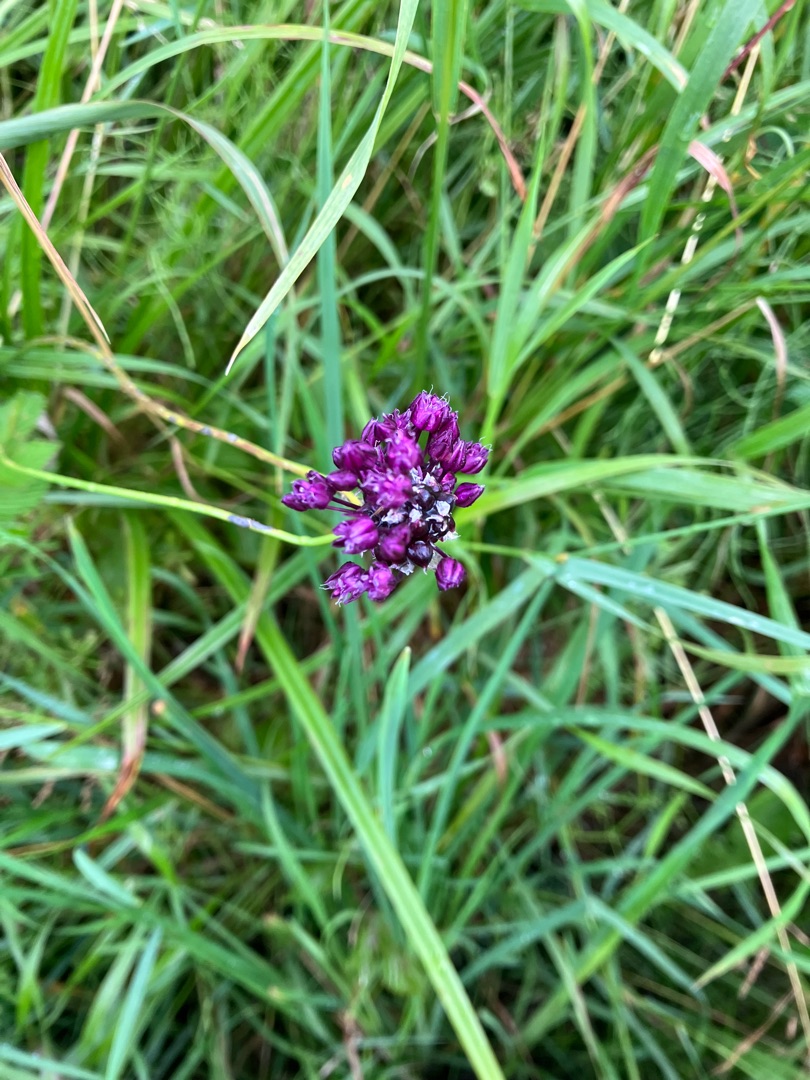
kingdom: Plantae
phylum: Tracheophyta
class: Liliopsida
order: Asparagales
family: Amaryllidaceae
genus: Allium
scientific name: Allium scorodoprasum
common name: Skov-løg
